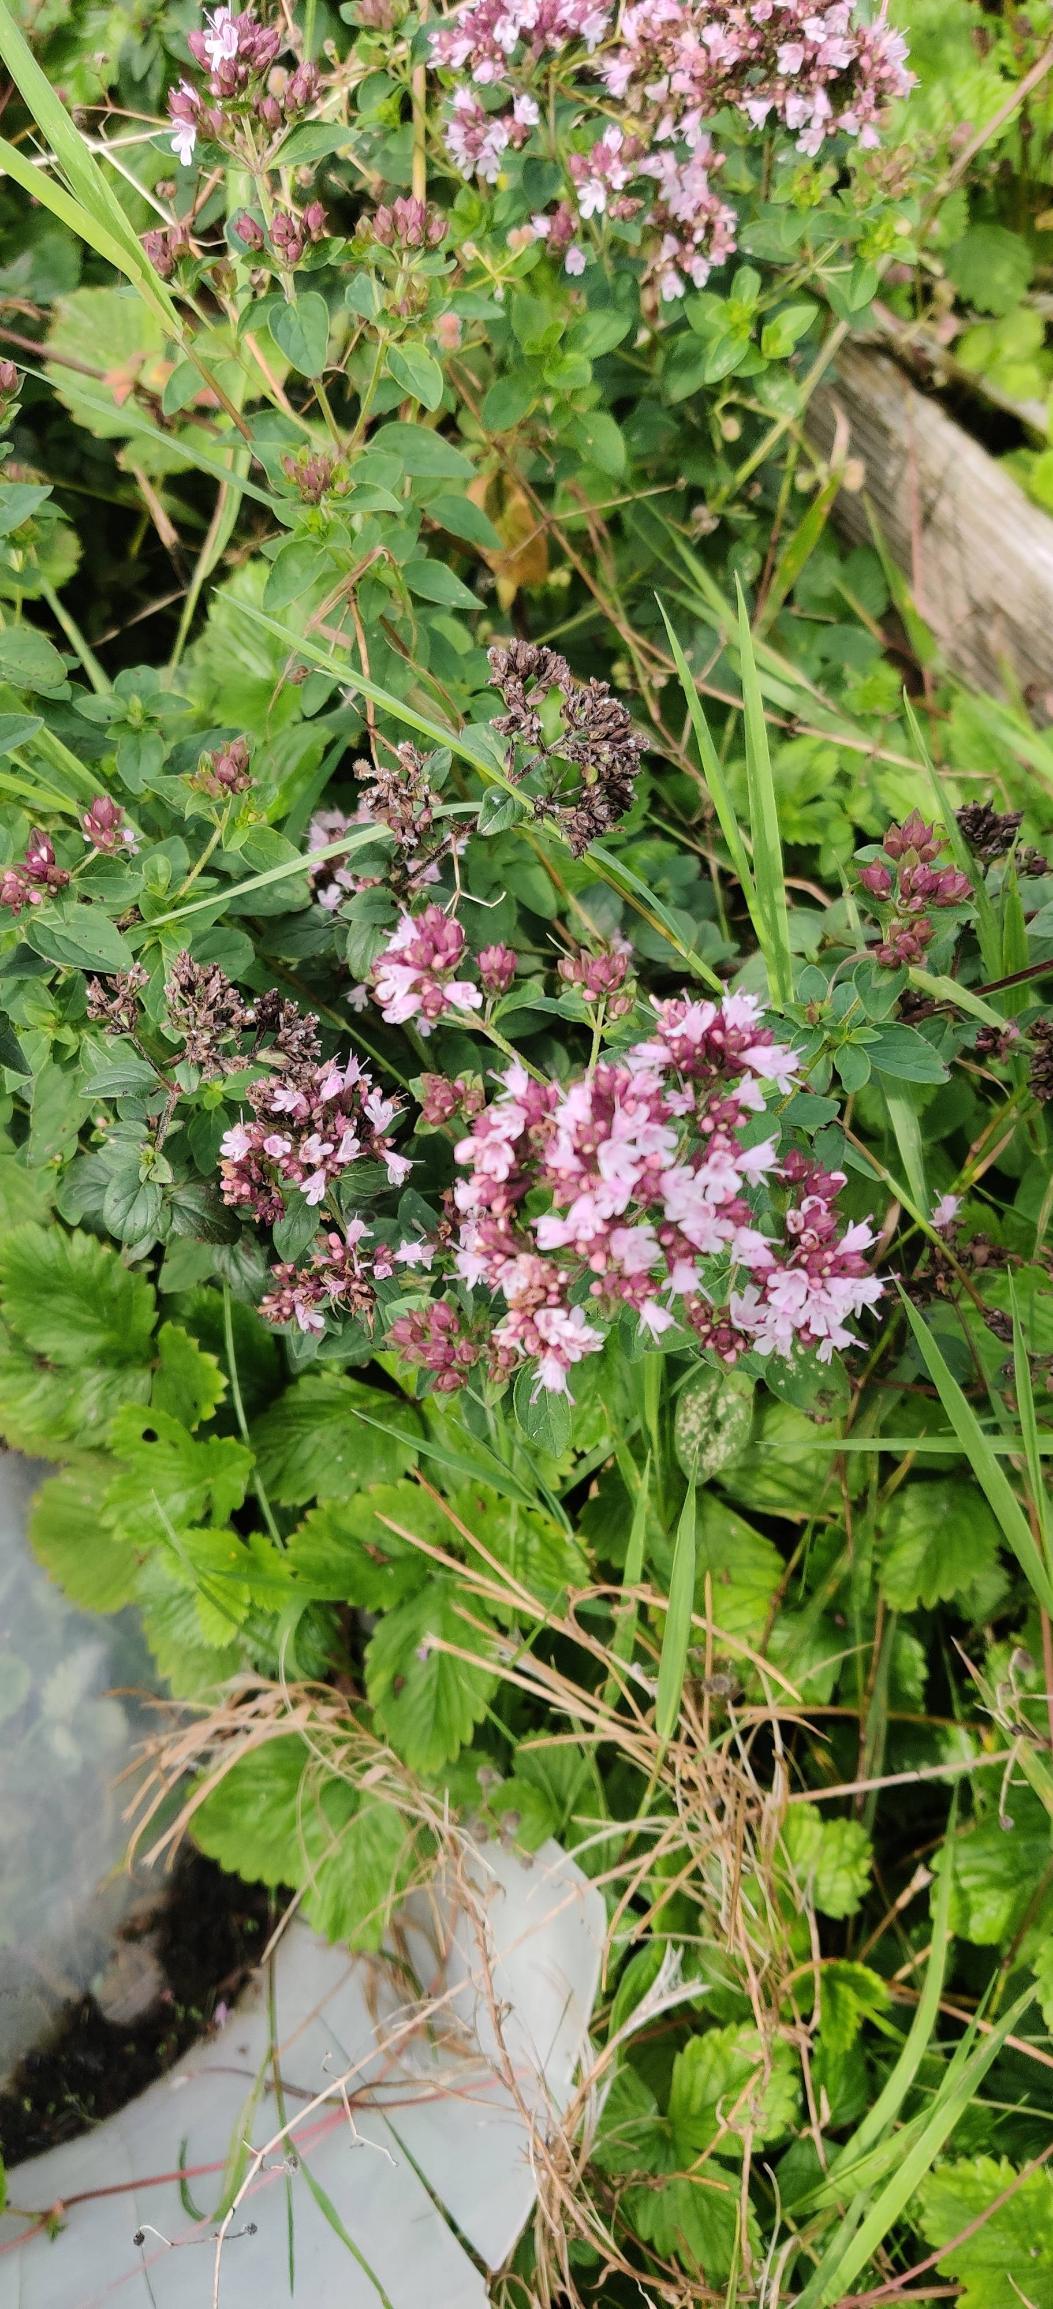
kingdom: Plantae
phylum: Tracheophyta
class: Magnoliopsida
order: Lamiales
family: Lamiaceae
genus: Origanum
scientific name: Origanum vulgare
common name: Merian
